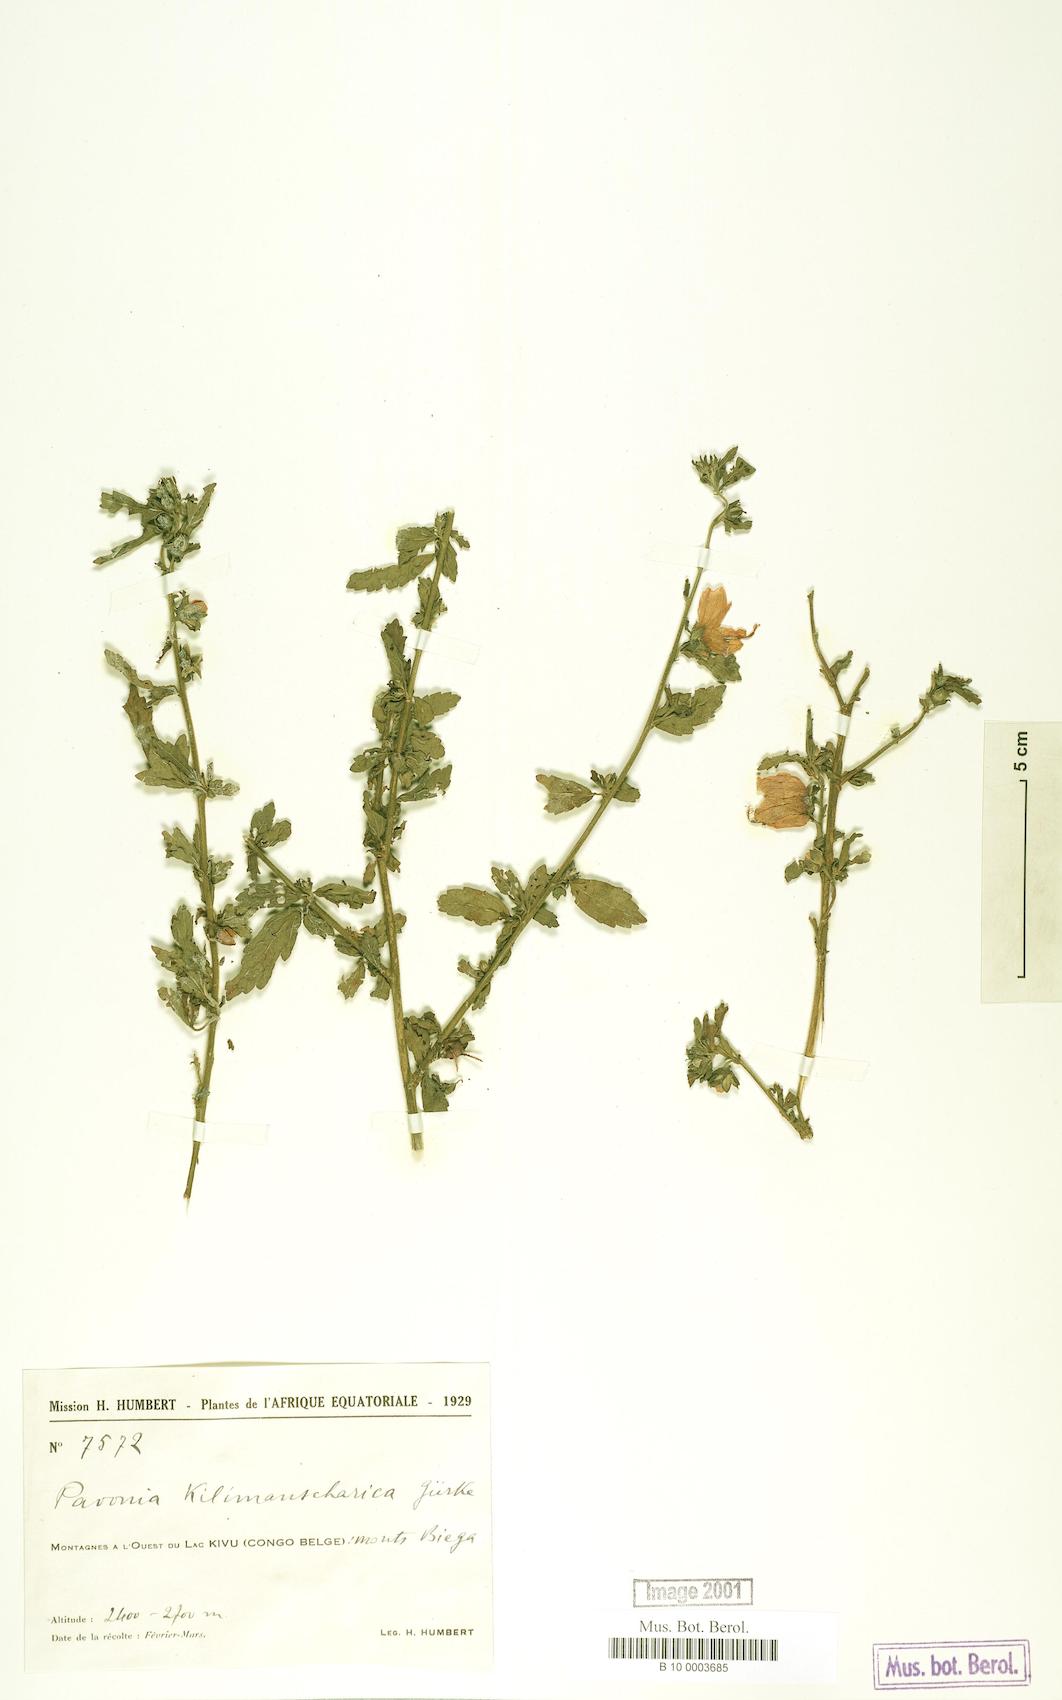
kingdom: Plantae
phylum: Tracheophyta
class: Magnoliopsida
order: Malvales
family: Malvaceae
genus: Pavonia
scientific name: Pavonia
